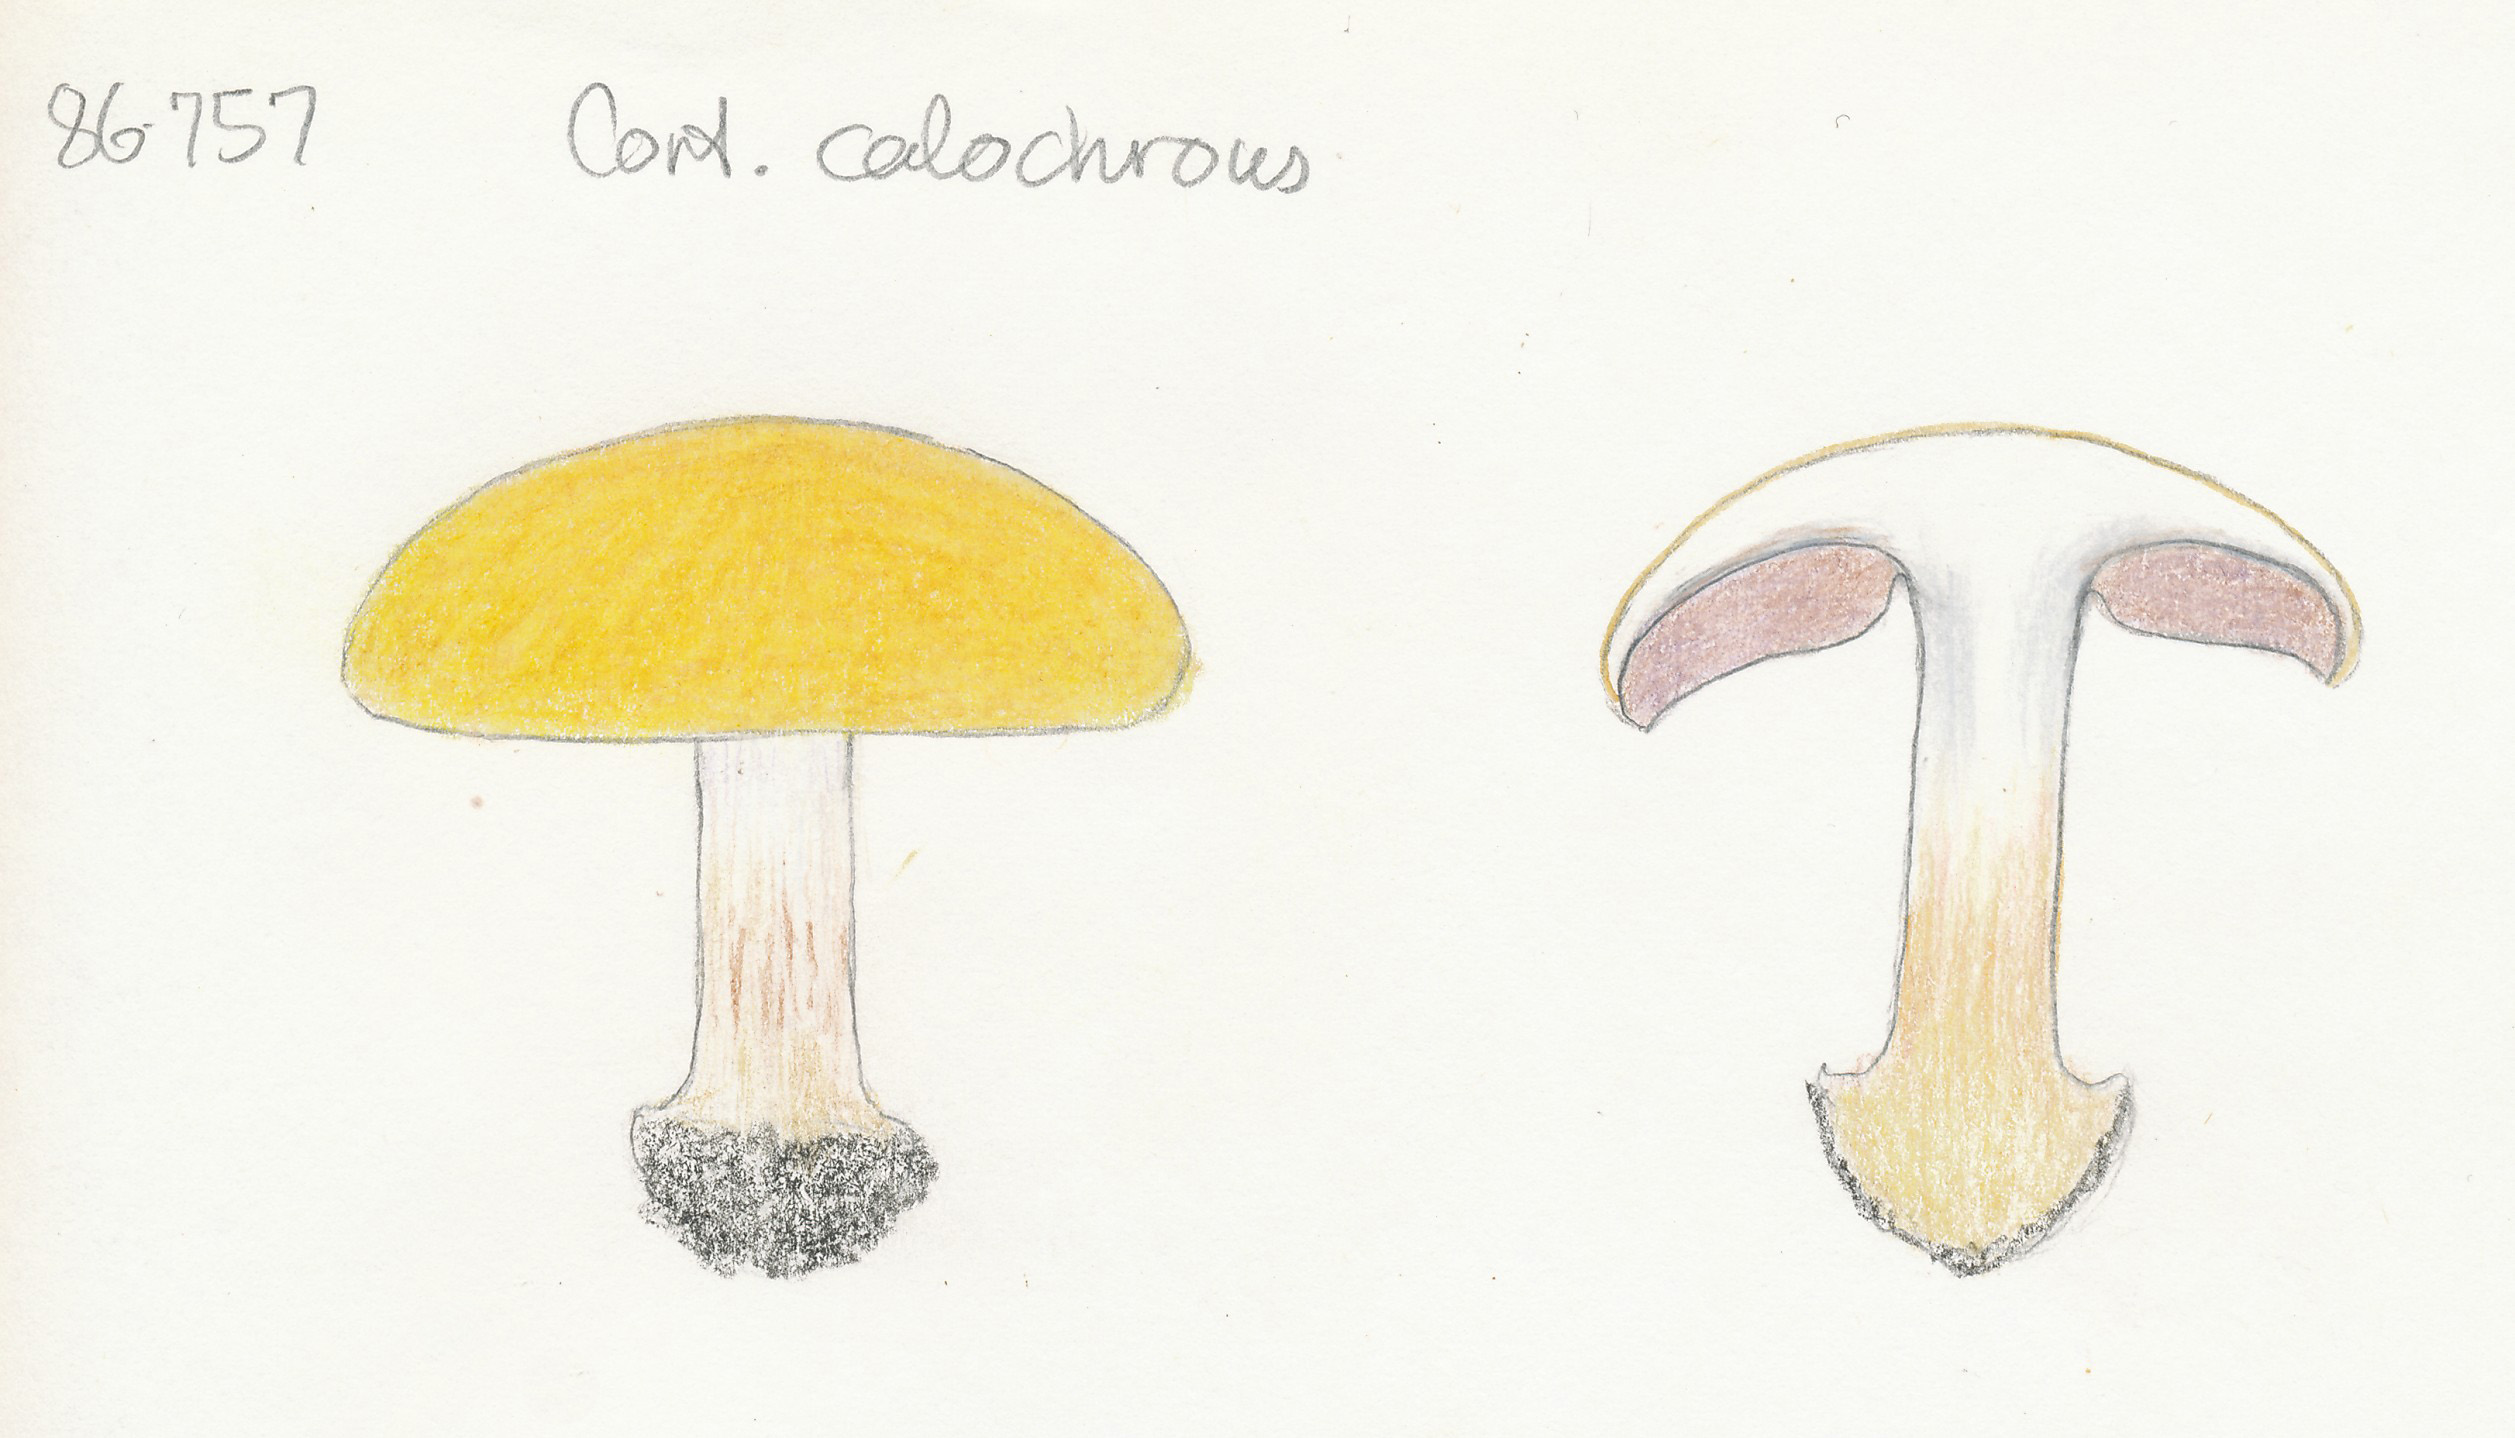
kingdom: Fungi
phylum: Basidiomycota
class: Agaricomycetes
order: Agaricales
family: Cortinariaceae
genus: Calonarius
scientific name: Calonarius callochrous
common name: lillabladet slørhat
